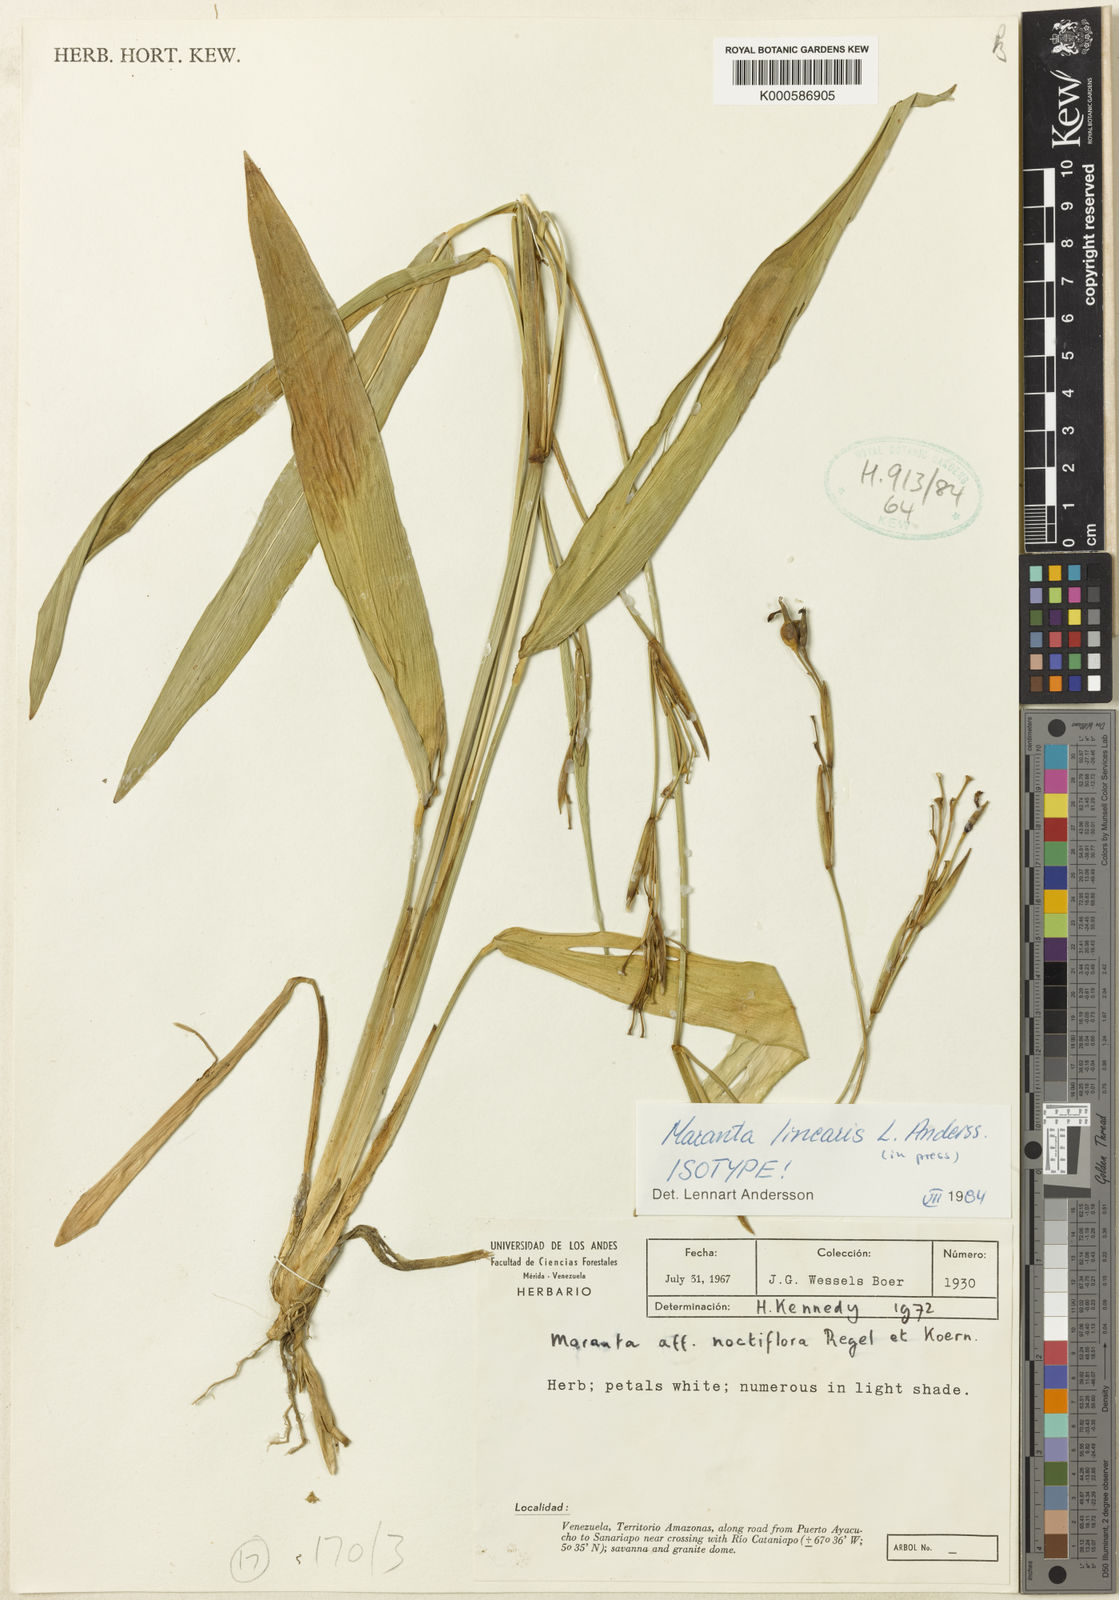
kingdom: Plantae
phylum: Tracheophyta
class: Liliopsida
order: Zingiberales
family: Marantaceae
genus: Maranta
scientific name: Maranta linearis
